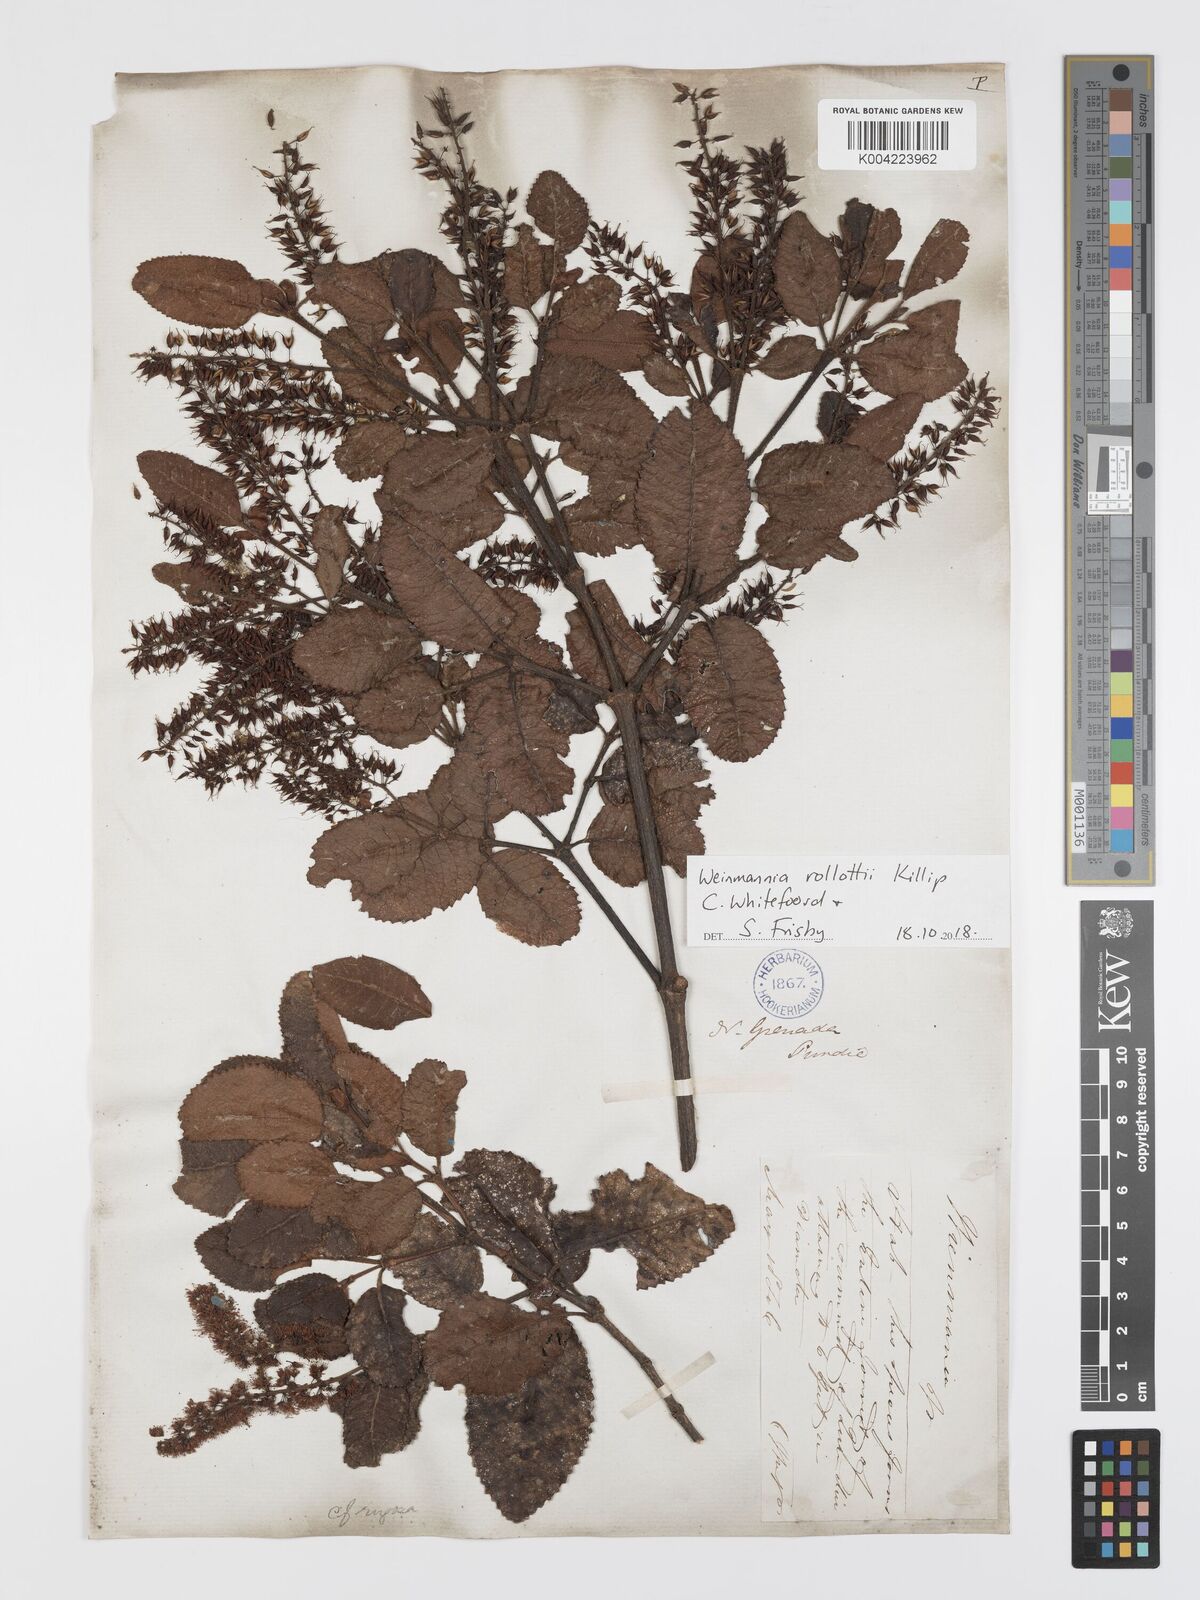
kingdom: Plantae
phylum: Tracheophyta
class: Magnoliopsida
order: Oxalidales
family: Cunoniaceae
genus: Weinmannia
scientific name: Weinmannia rollottii
